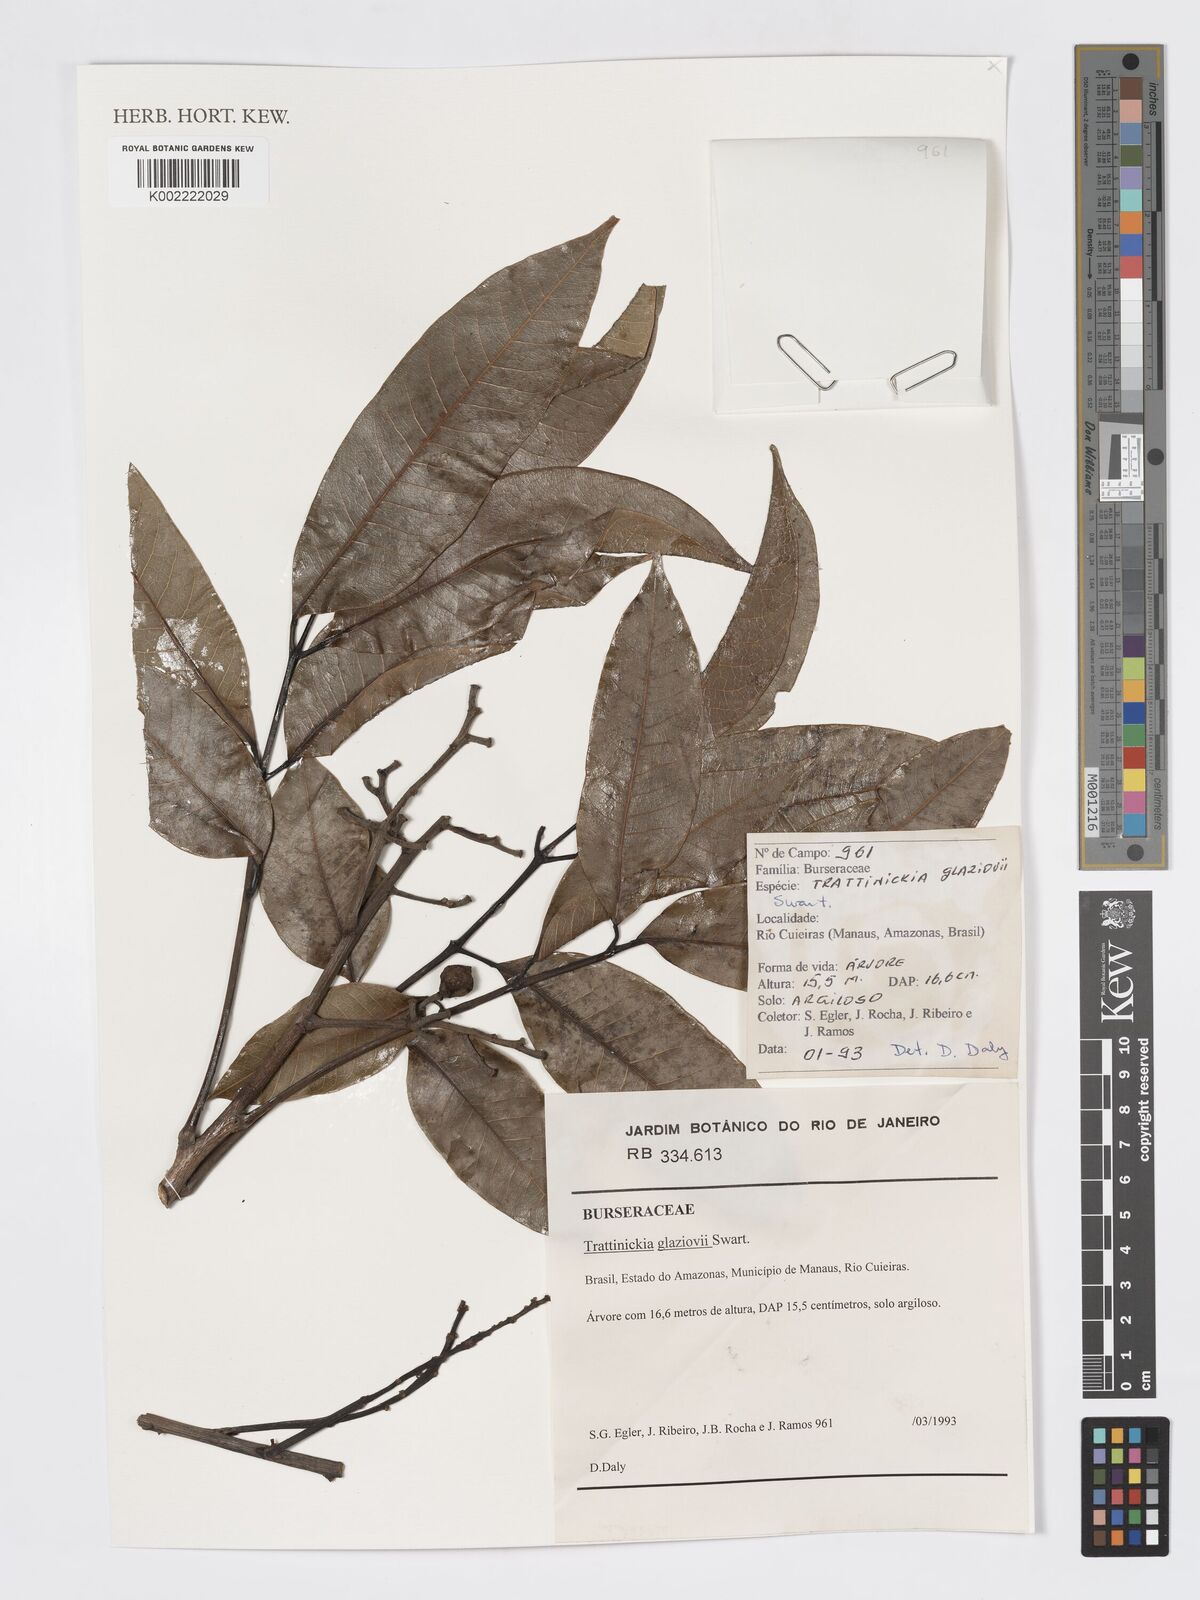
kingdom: Plantae
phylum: Tracheophyta
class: Magnoliopsida
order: Sapindales
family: Burseraceae
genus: Trattinnickia
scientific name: Trattinnickia glaziovii
